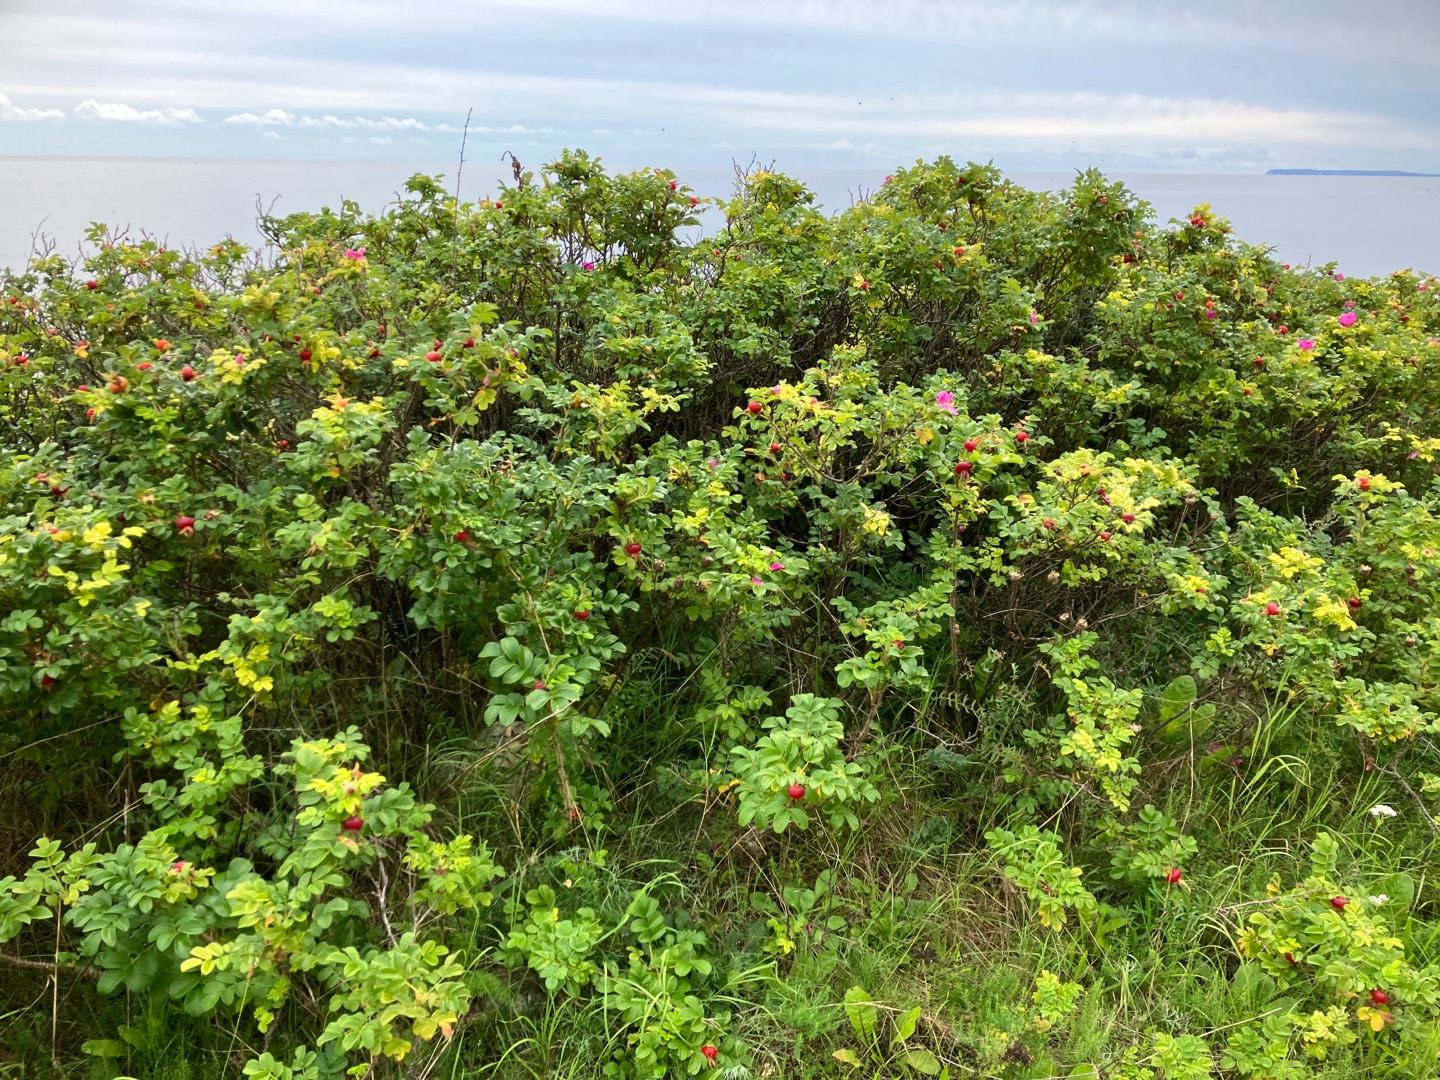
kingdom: Plantae
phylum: Tracheophyta
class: Magnoliopsida
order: Rosales
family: Rosaceae
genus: Rosa
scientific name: Rosa rugosa
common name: Rynket rose
